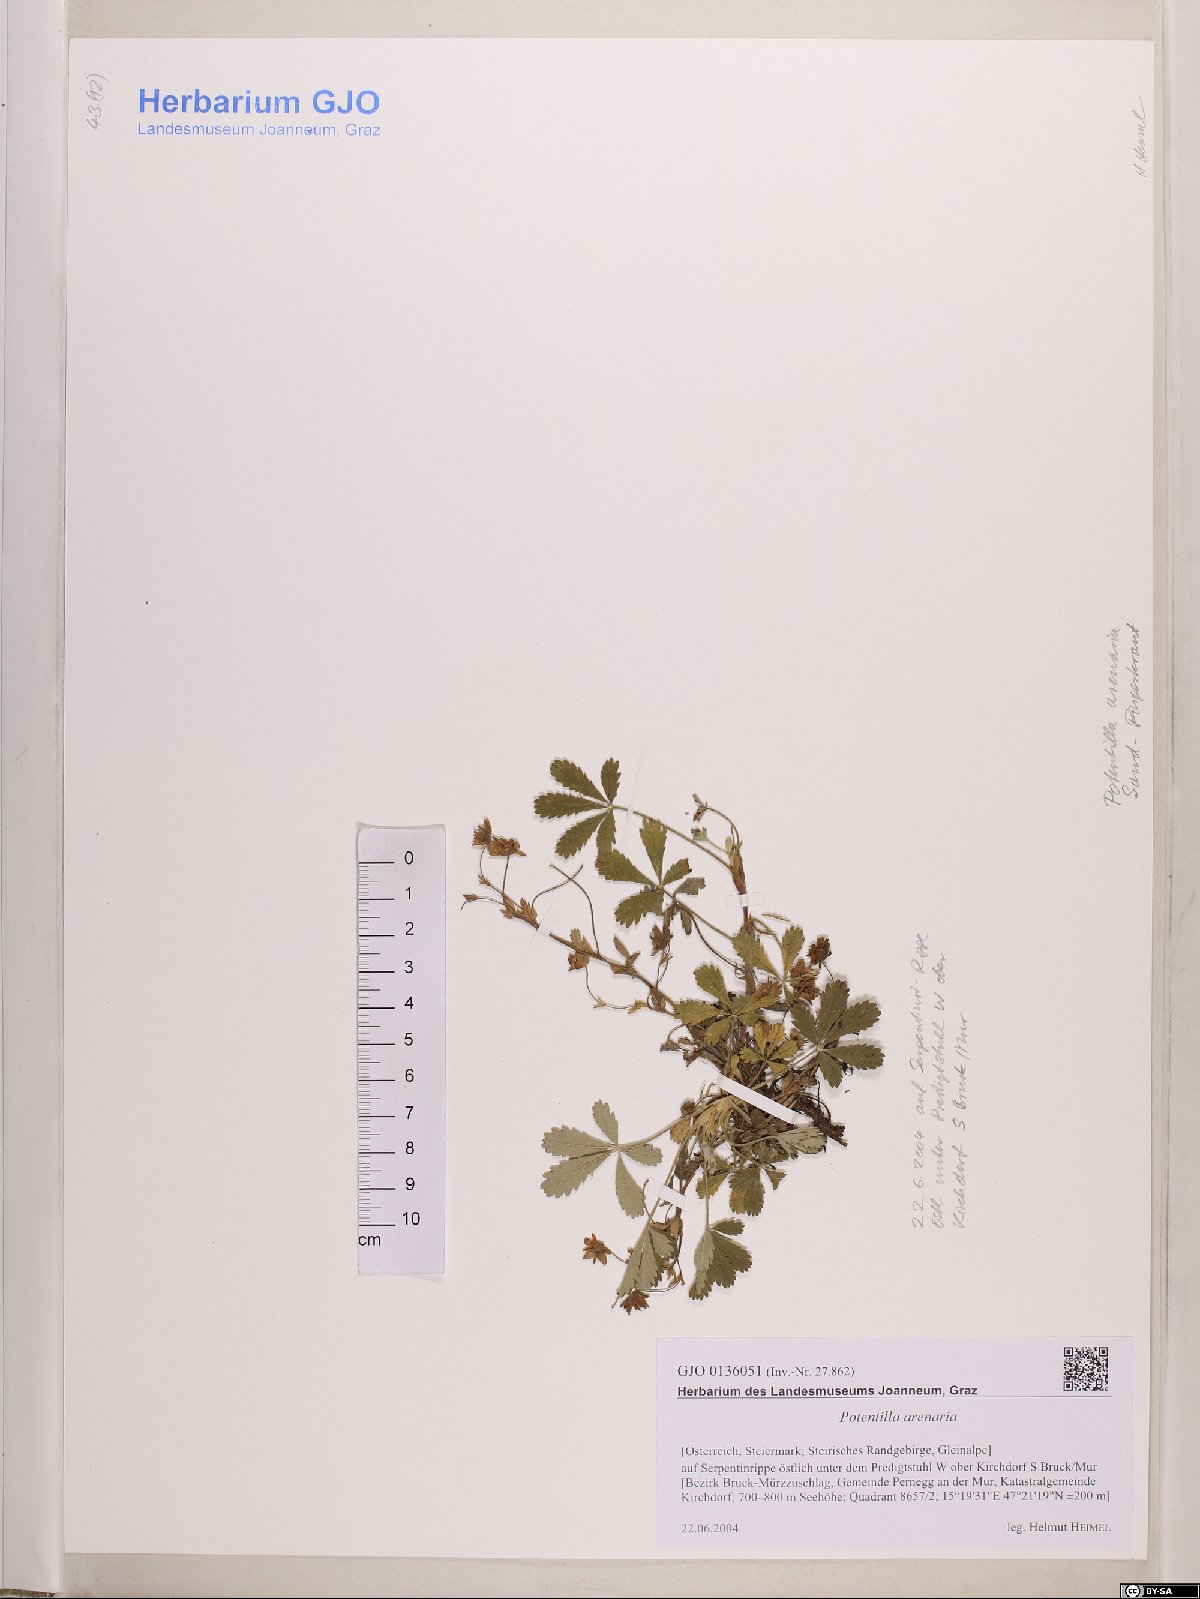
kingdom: Plantae
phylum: Tracheophyta
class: Magnoliopsida
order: Rosales
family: Rosaceae
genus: Potentilla
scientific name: Potentilla cinerea
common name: Ashy cinquefoil
